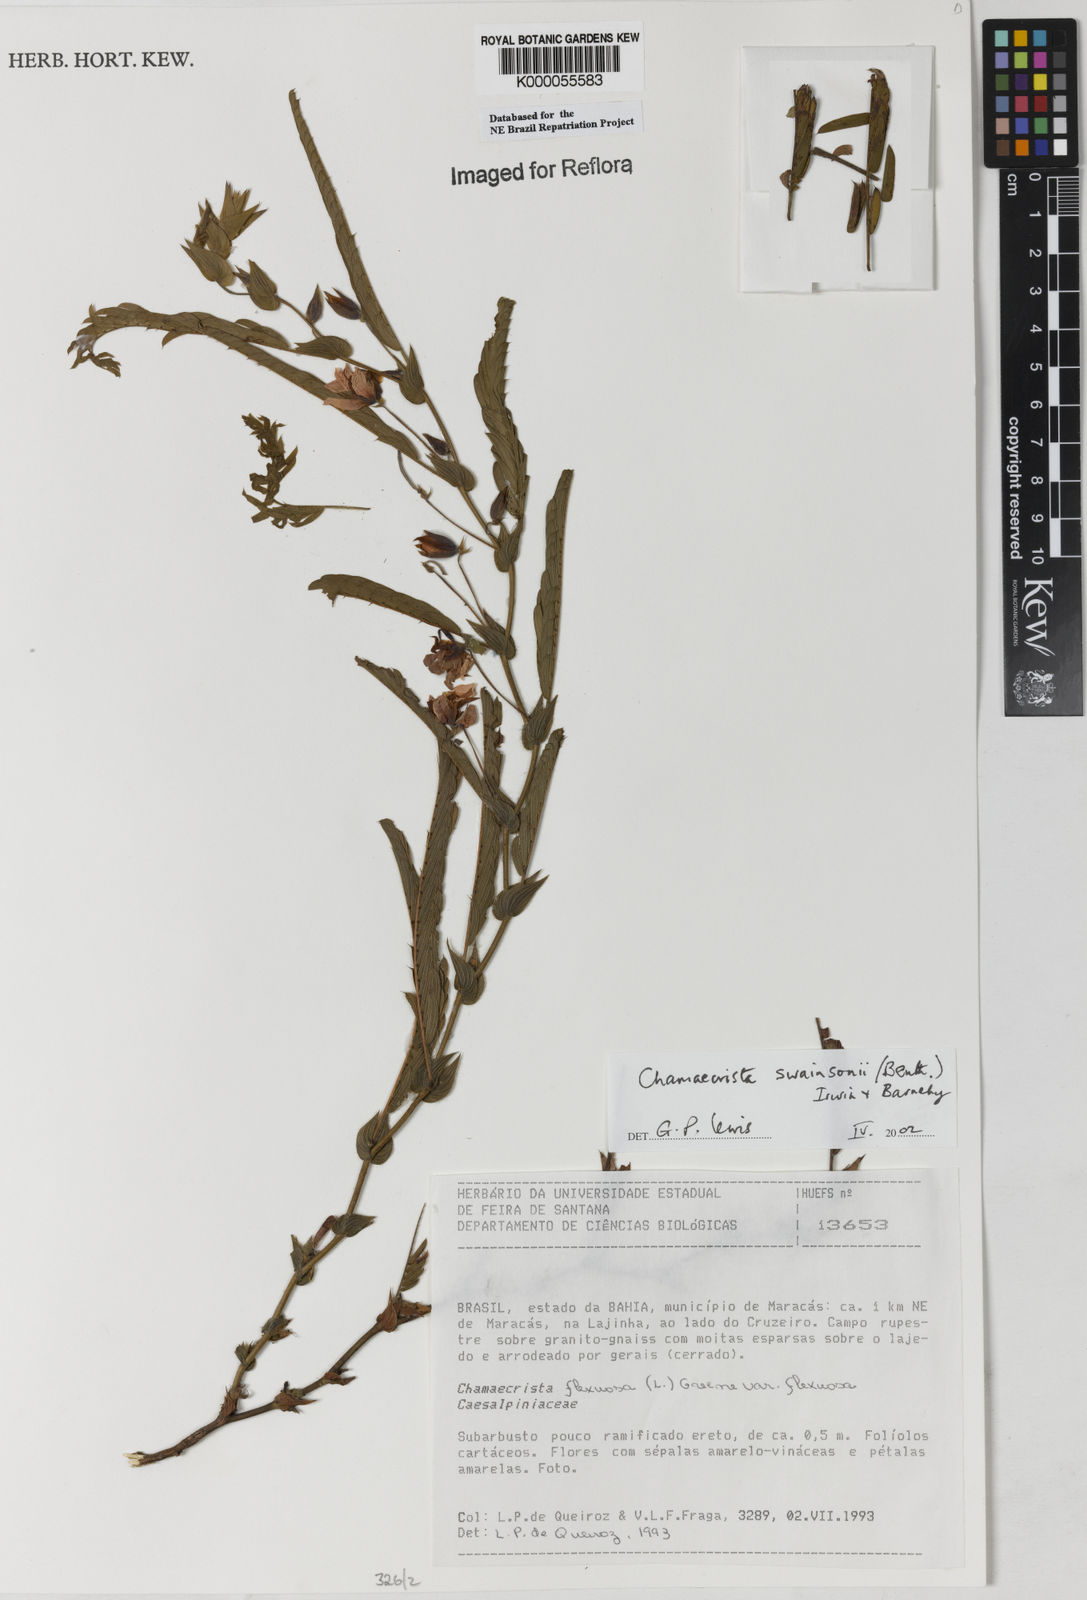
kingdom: Plantae
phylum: Tracheophyta
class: Magnoliopsida
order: Fabales
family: Fabaceae
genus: Chamaecrista
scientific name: Chamaecrista swainsonii
